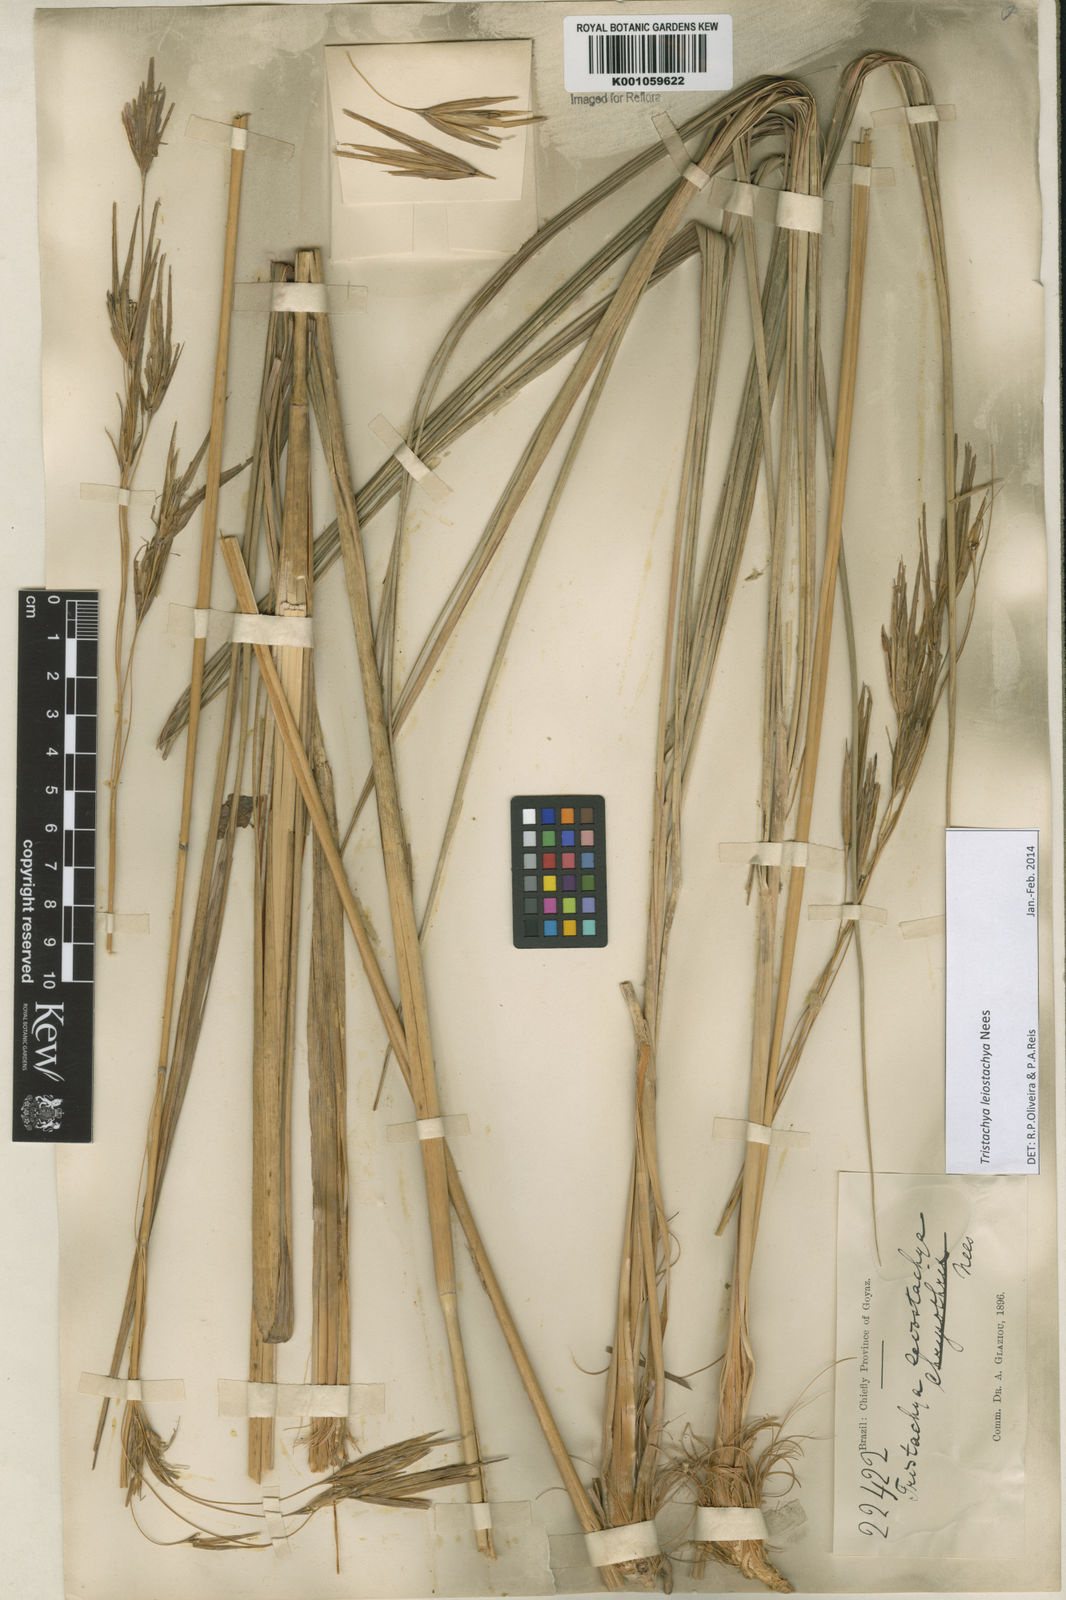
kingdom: Plantae
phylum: Tracheophyta
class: Liliopsida
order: Poales
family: Poaceae
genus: Tristachya
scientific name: Tristachya leiostachya
